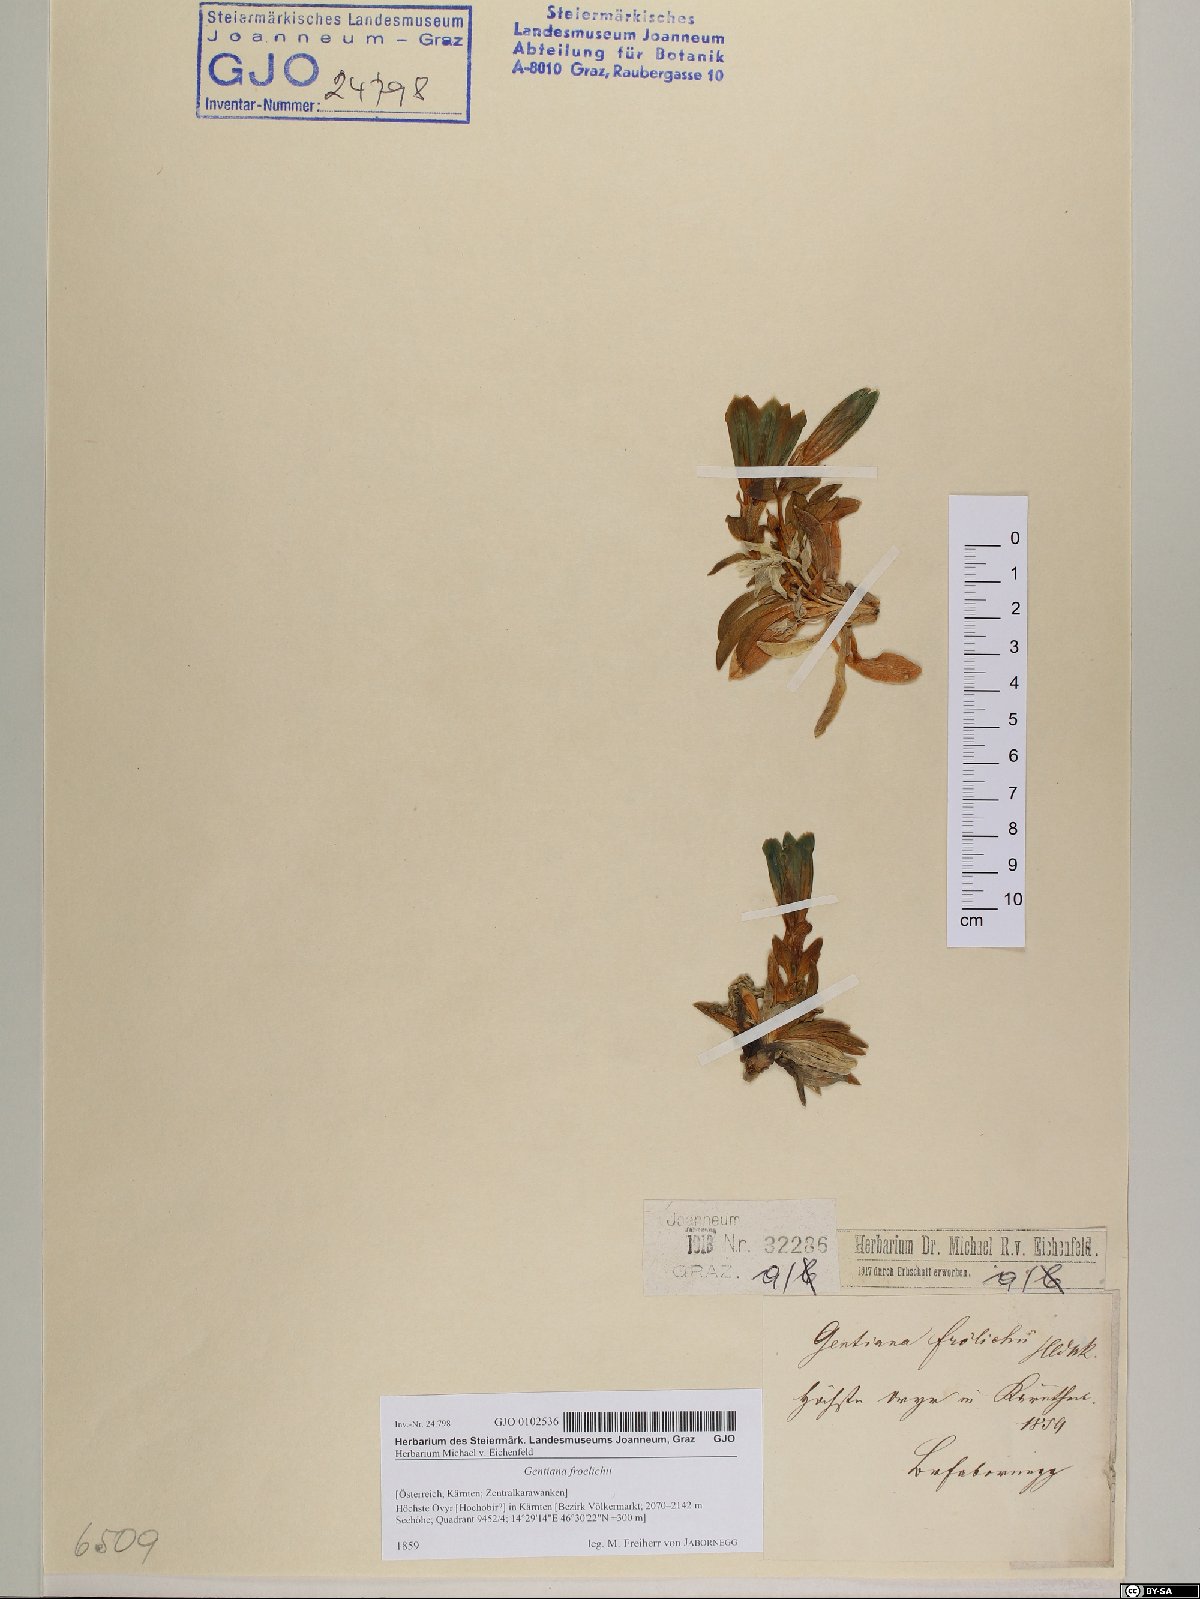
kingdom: Plantae
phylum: Tracheophyta
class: Magnoliopsida
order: Gentianales
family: Gentianaceae
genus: Gentiana
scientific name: Gentiana froelichii
